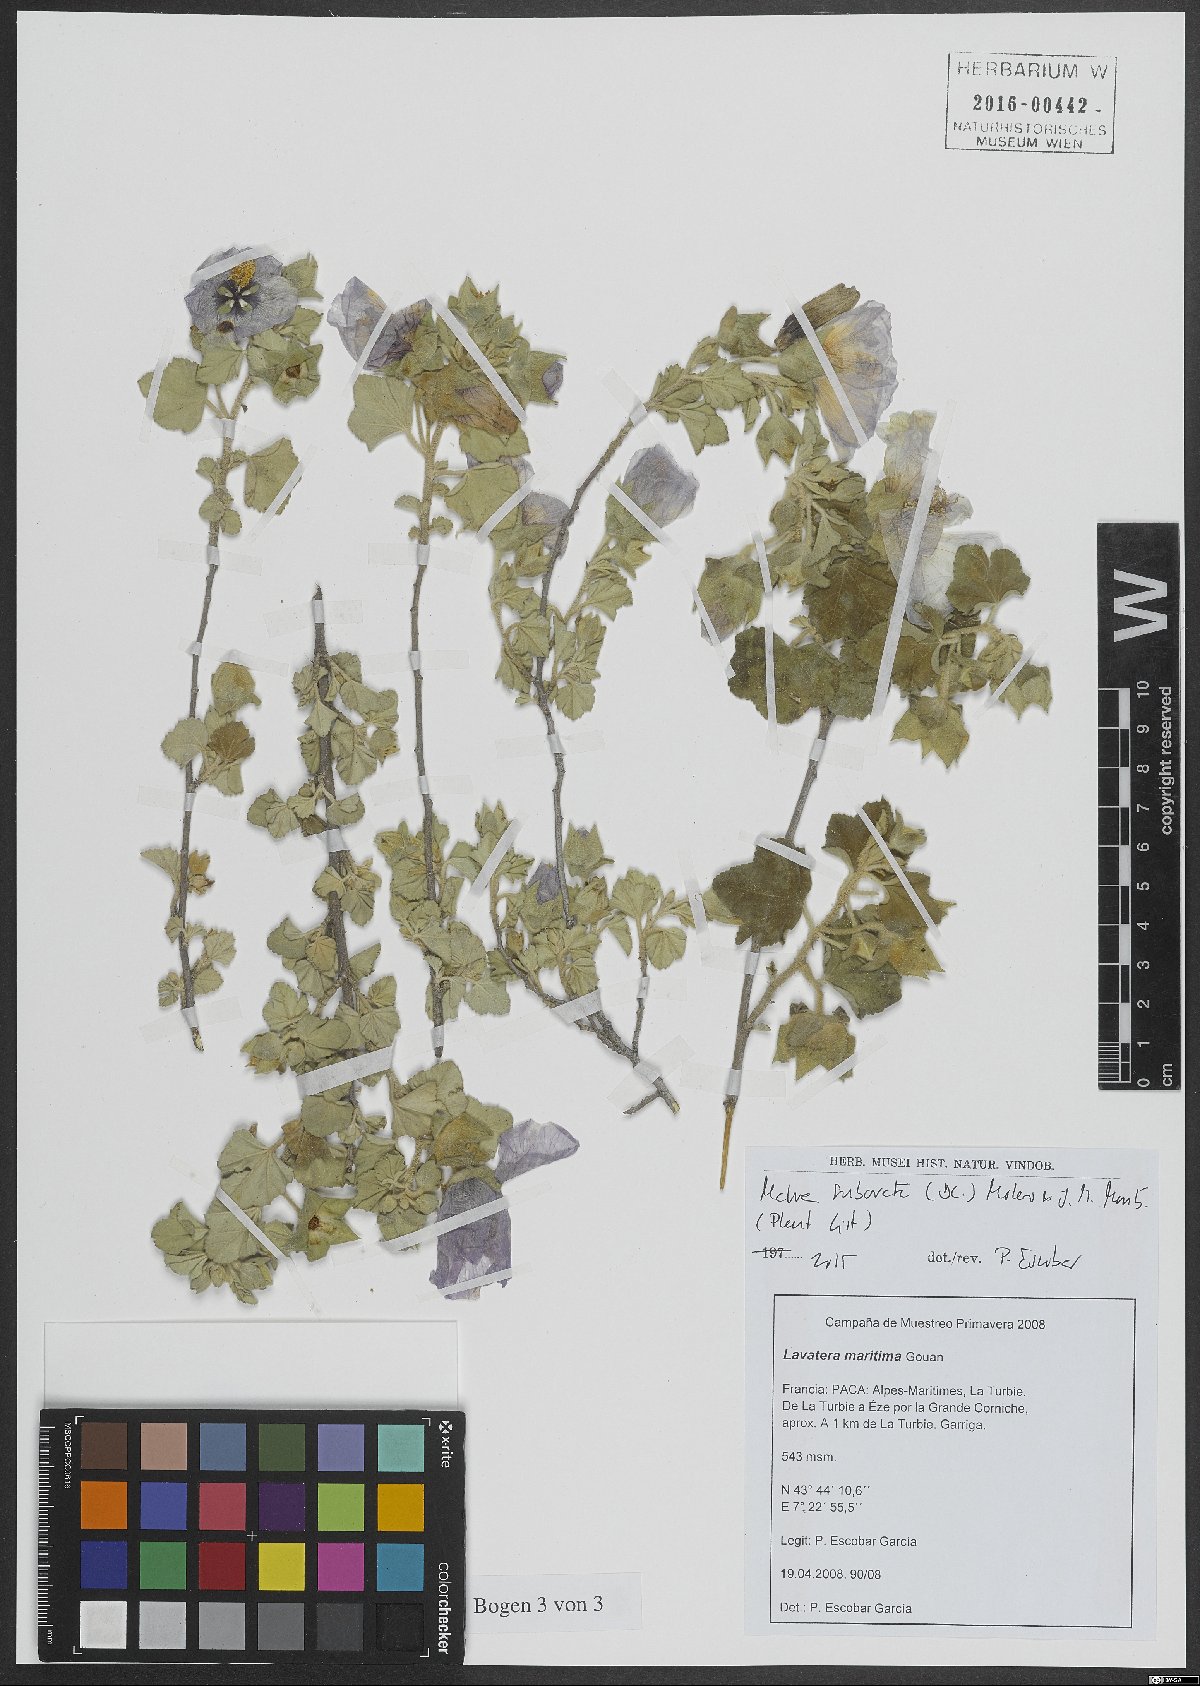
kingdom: Plantae
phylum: Tracheophyta
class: Magnoliopsida
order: Malvales
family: Malvaceae
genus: Malva
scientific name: Malva subovata
